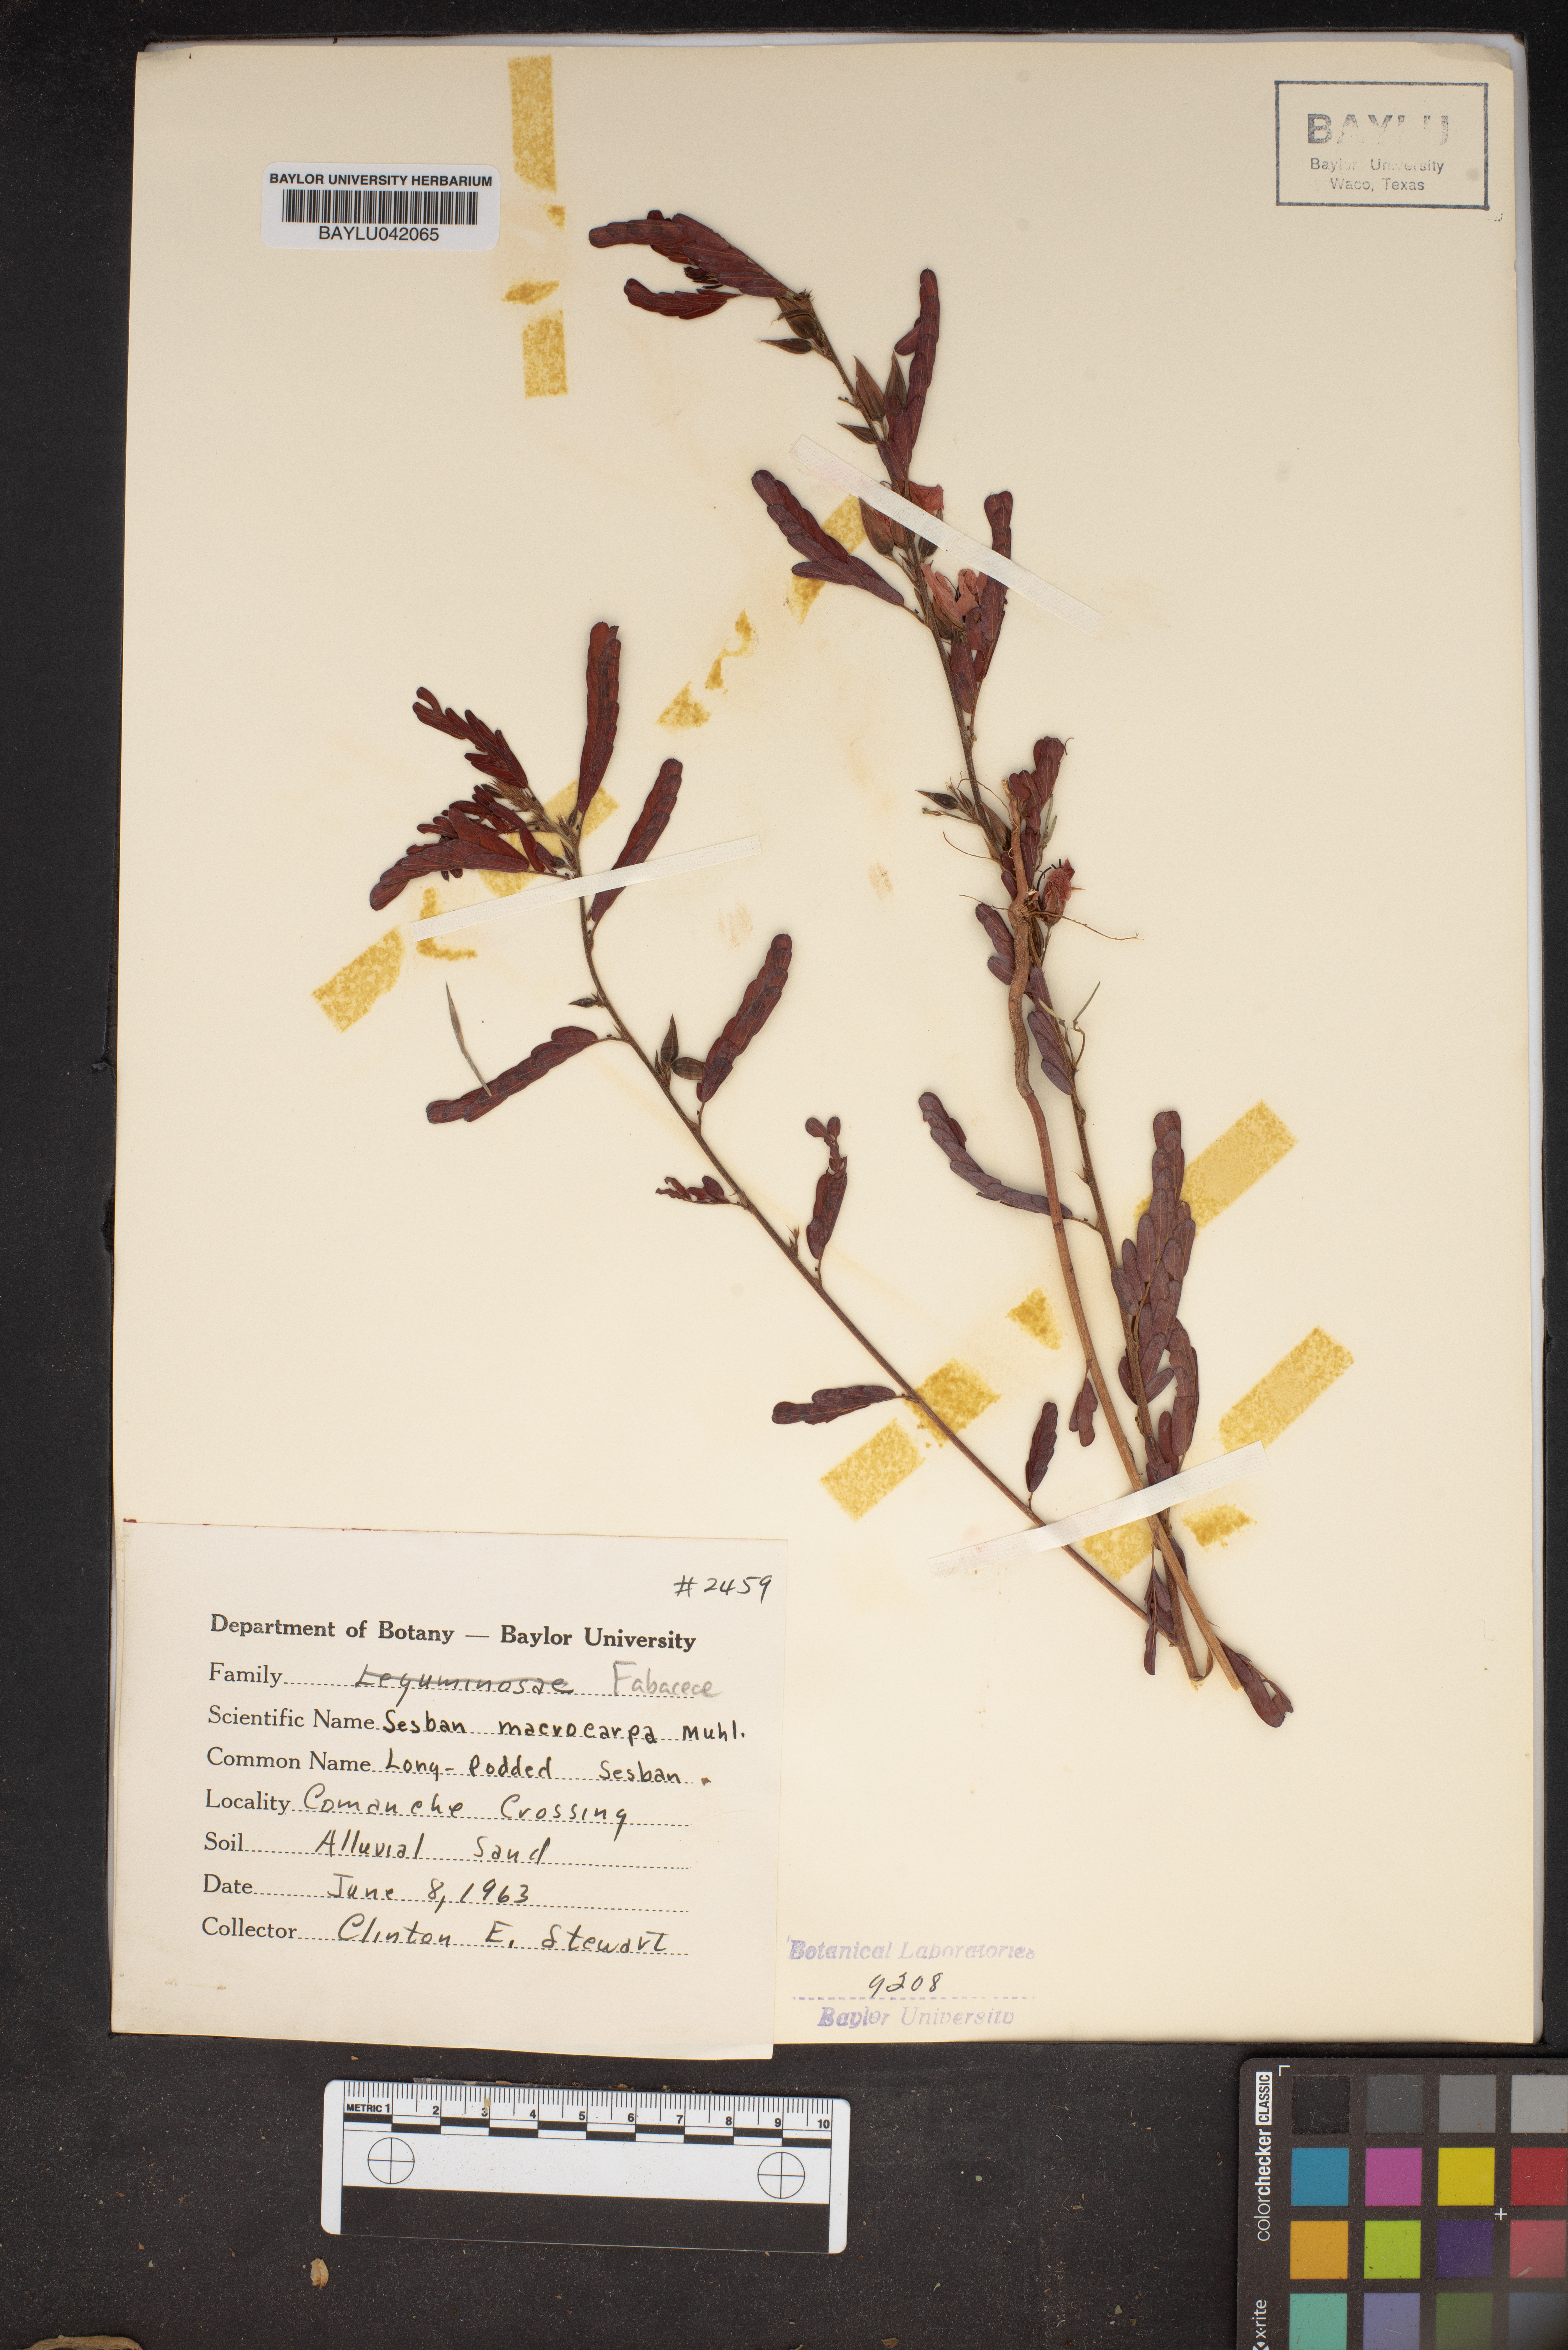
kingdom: Plantae
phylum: Tracheophyta
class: Magnoliopsida
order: Fabales
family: Fabaceae
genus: Sesbania
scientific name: Sesbania vesicaria
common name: Bagpod
